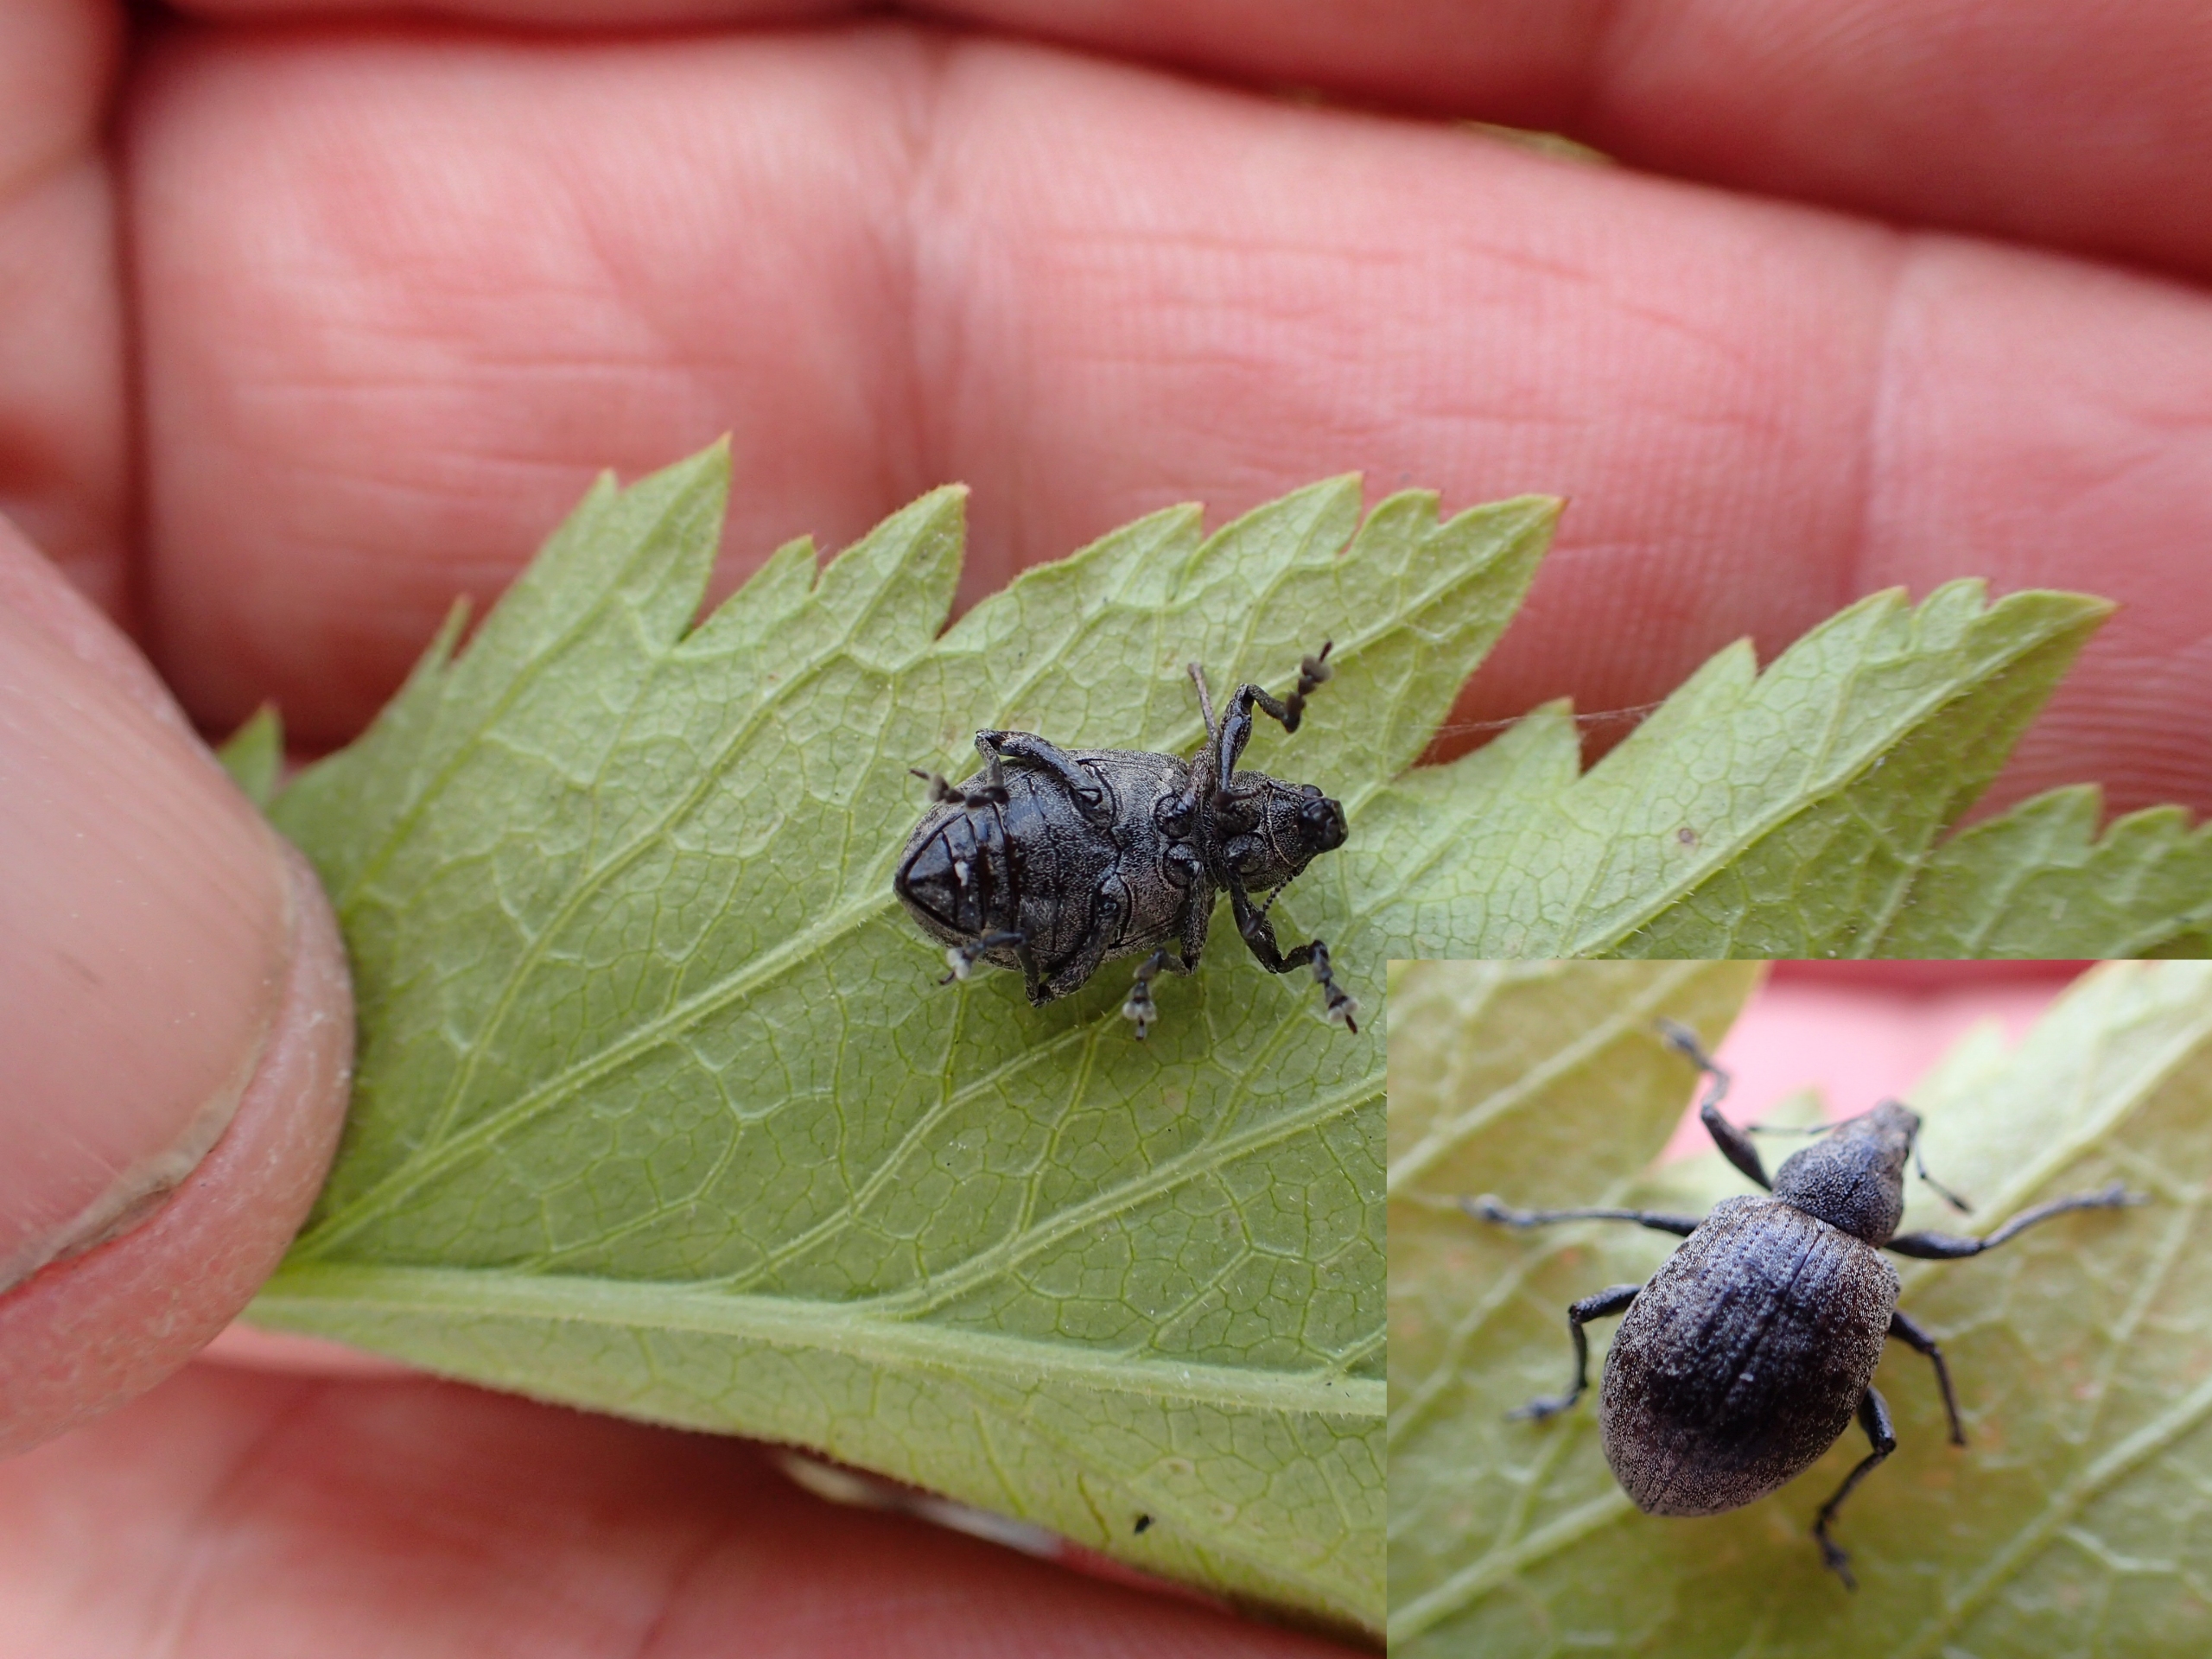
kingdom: Animalia
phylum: Arthropoda
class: Insecta
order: Coleoptera
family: Curculionidae
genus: Liophloeus
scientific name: Liophloeus tessulatus
